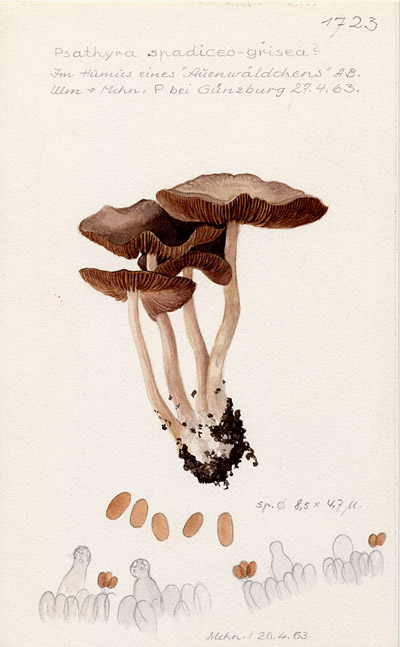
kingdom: Fungi
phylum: Basidiomycota
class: Agaricomycetes
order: Agaricales
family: Psathyrellaceae
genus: Psathyrella
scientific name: Psathyrella spadiceogrisea
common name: Spring brittlestem
